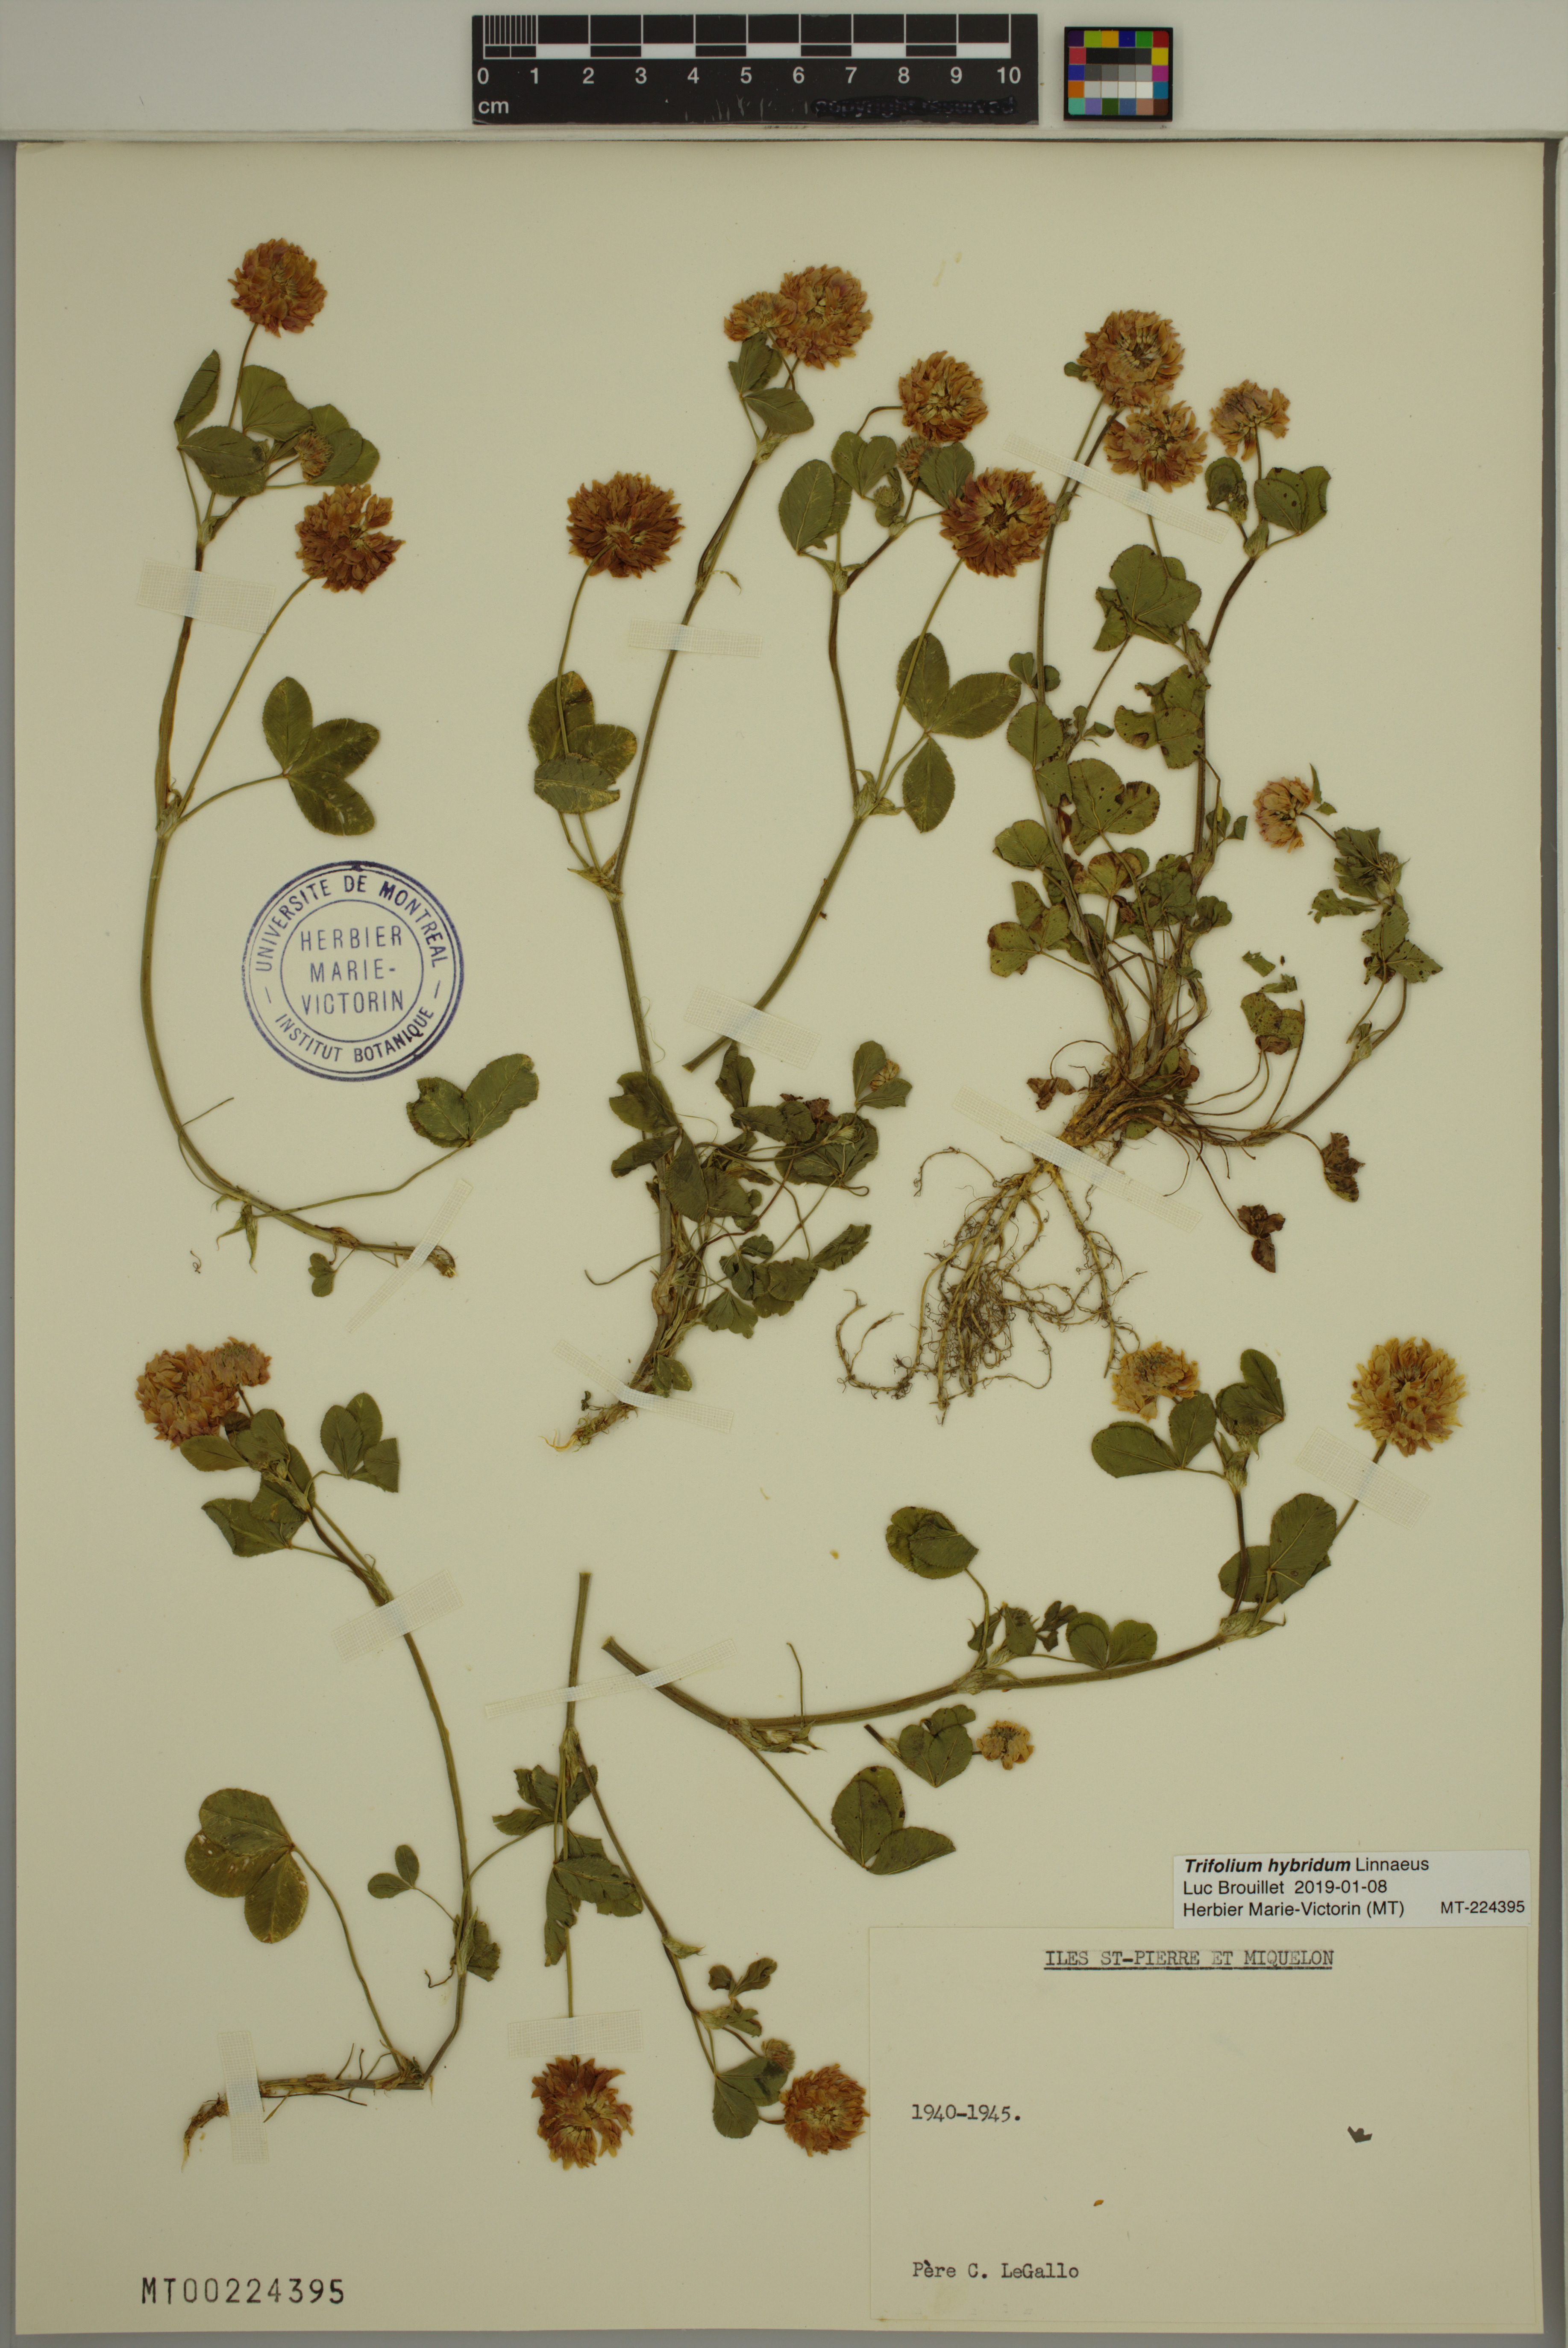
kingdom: Plantae
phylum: Tracheophyta
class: Magnoliopsida
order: Fabales
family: Fabaceae
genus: Trifolium
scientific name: Trifolium hybridum
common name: Alsike clover
